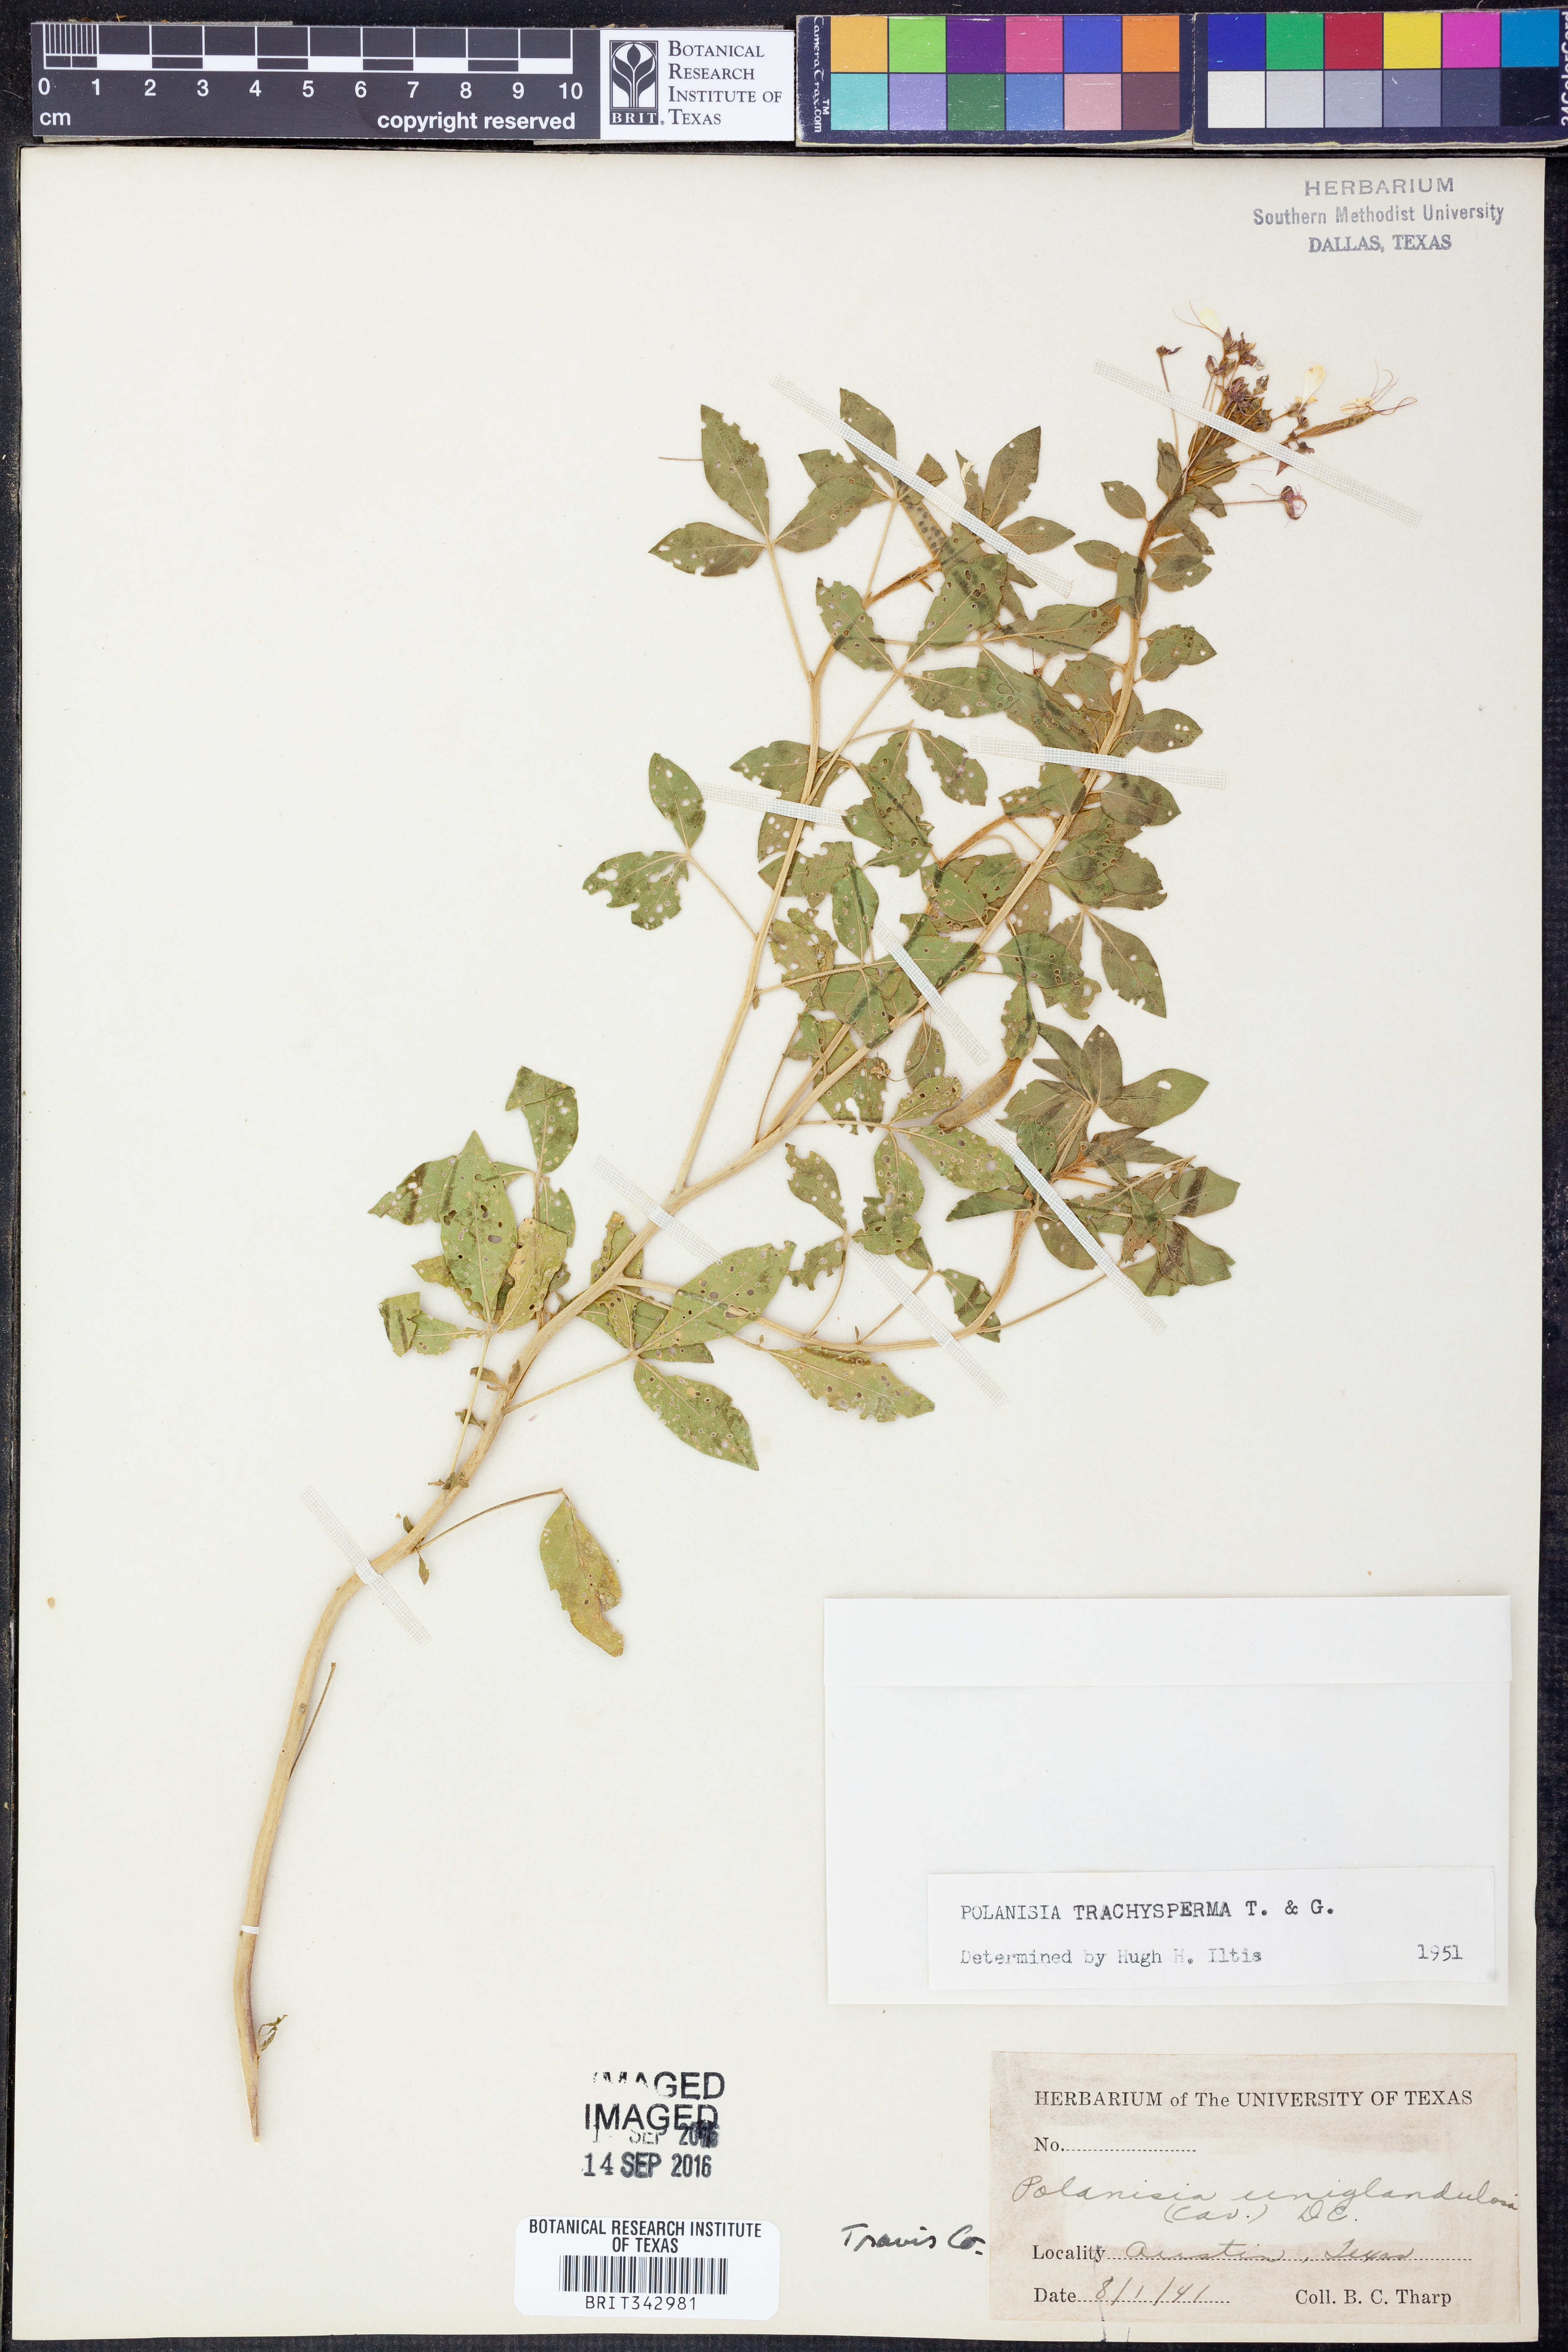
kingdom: Plantae
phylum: Tracheophyta
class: Magnoliopsida
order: Brassicales
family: Cleomaceae
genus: Polanisia
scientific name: Polanisia trachysperma
